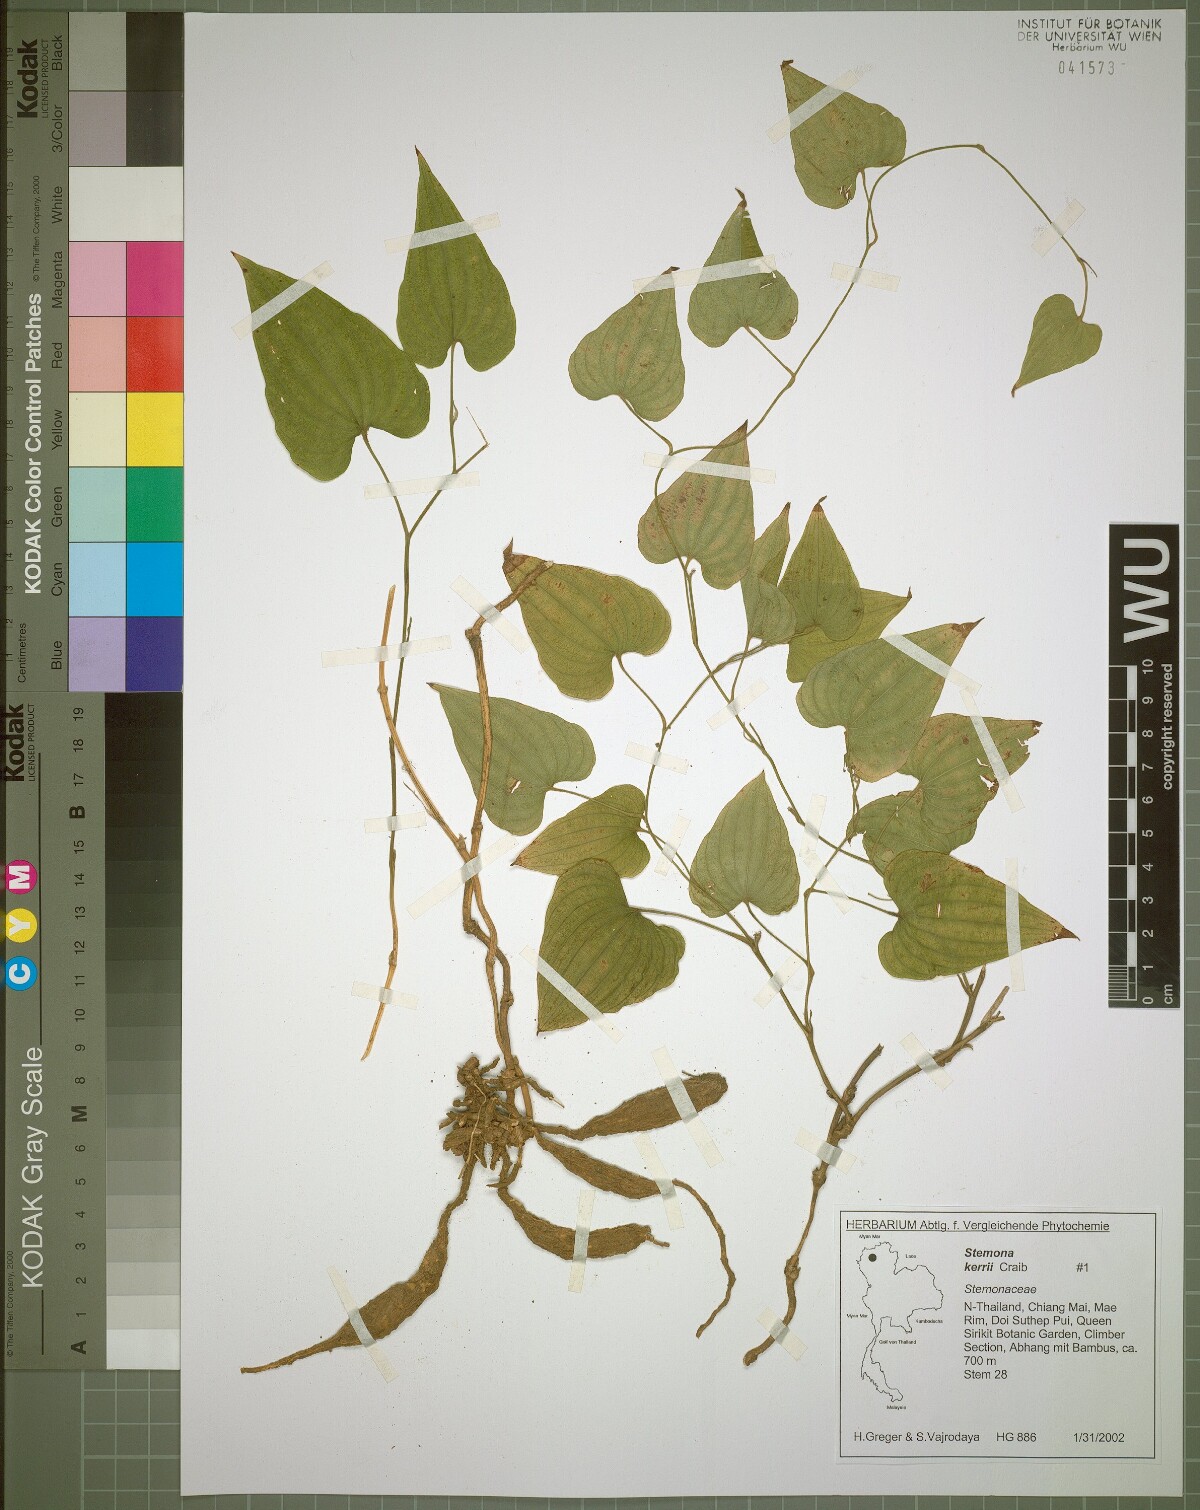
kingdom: Plantae
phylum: Tracheophyta
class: Liliopsida
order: Pandanales
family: Stemonaceae
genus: Stemona
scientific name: Stemona kerrii
